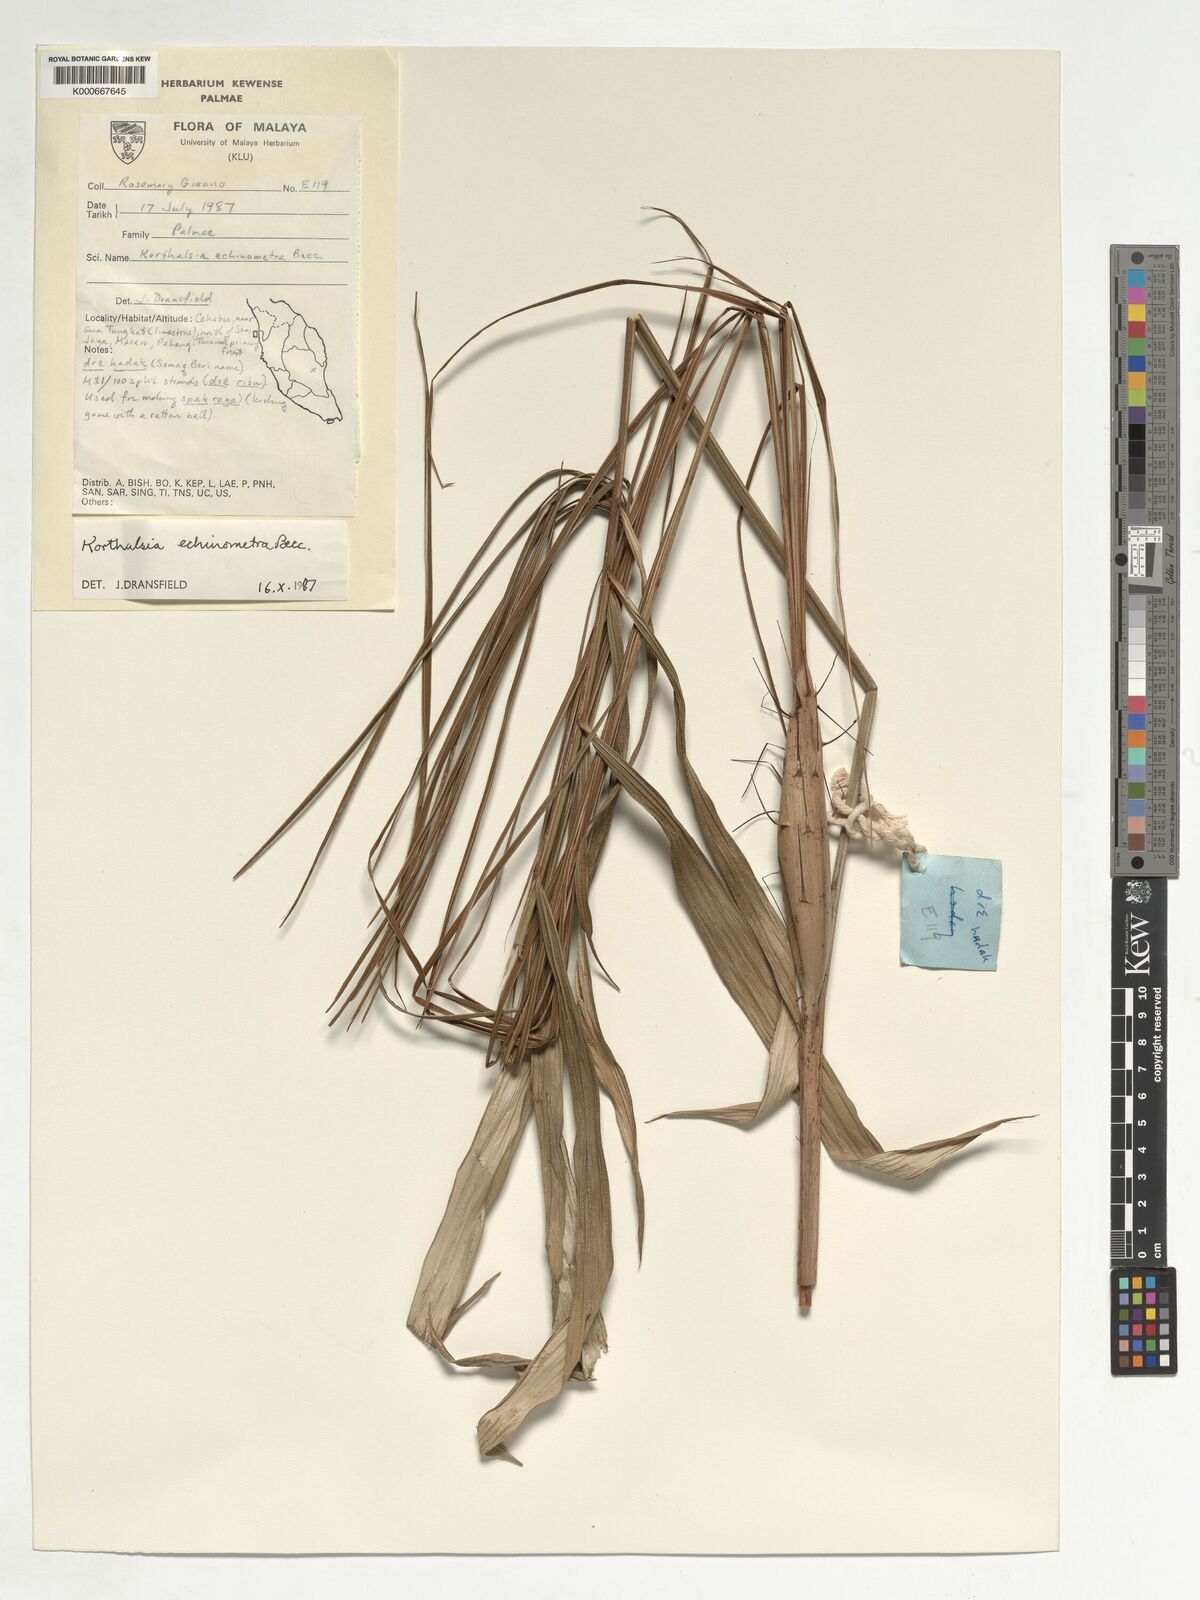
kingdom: Plantae
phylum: Tracheophyta
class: Liliopsida
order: Arecales
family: Arecaceae
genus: Korthalsia
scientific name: Korthalsia echinometra
